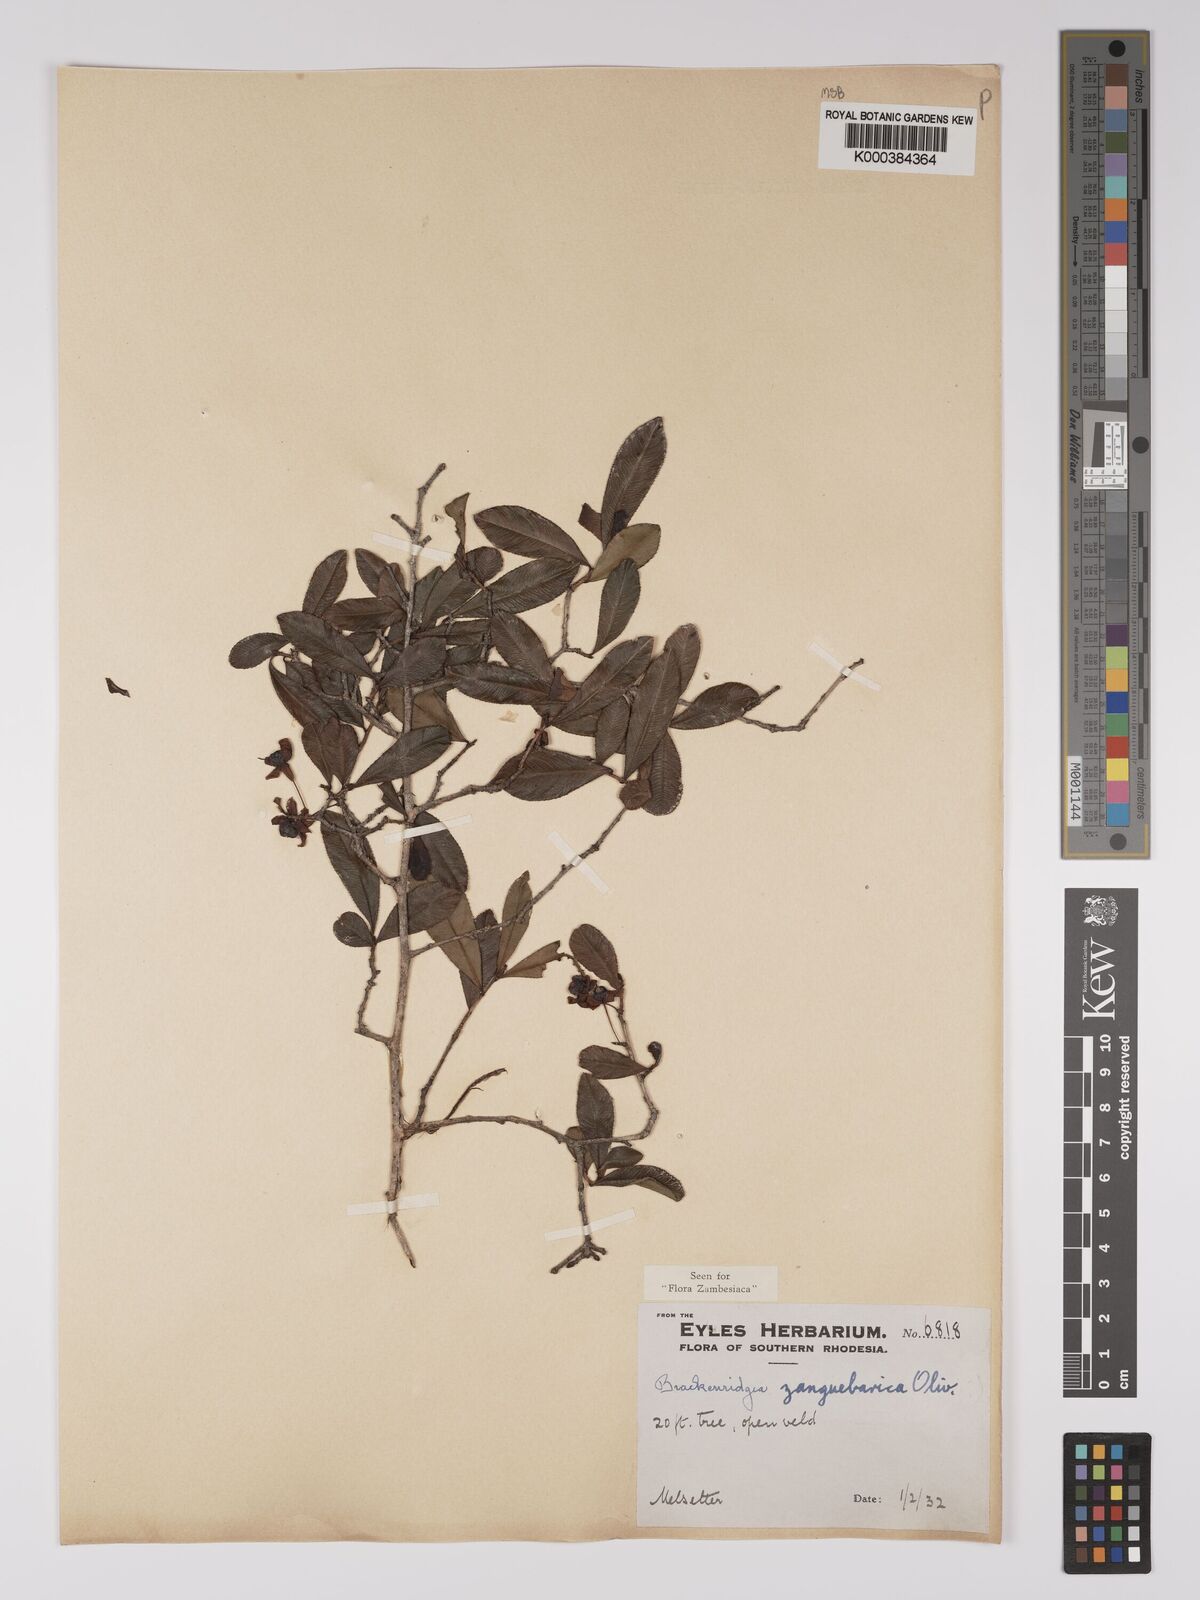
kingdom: Plantae
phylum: Tracheophyta
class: Magnoliopsida
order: Malpighiales
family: Ochnaceae
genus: Brackenridgea
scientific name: Brackenridgea zanguebarica
